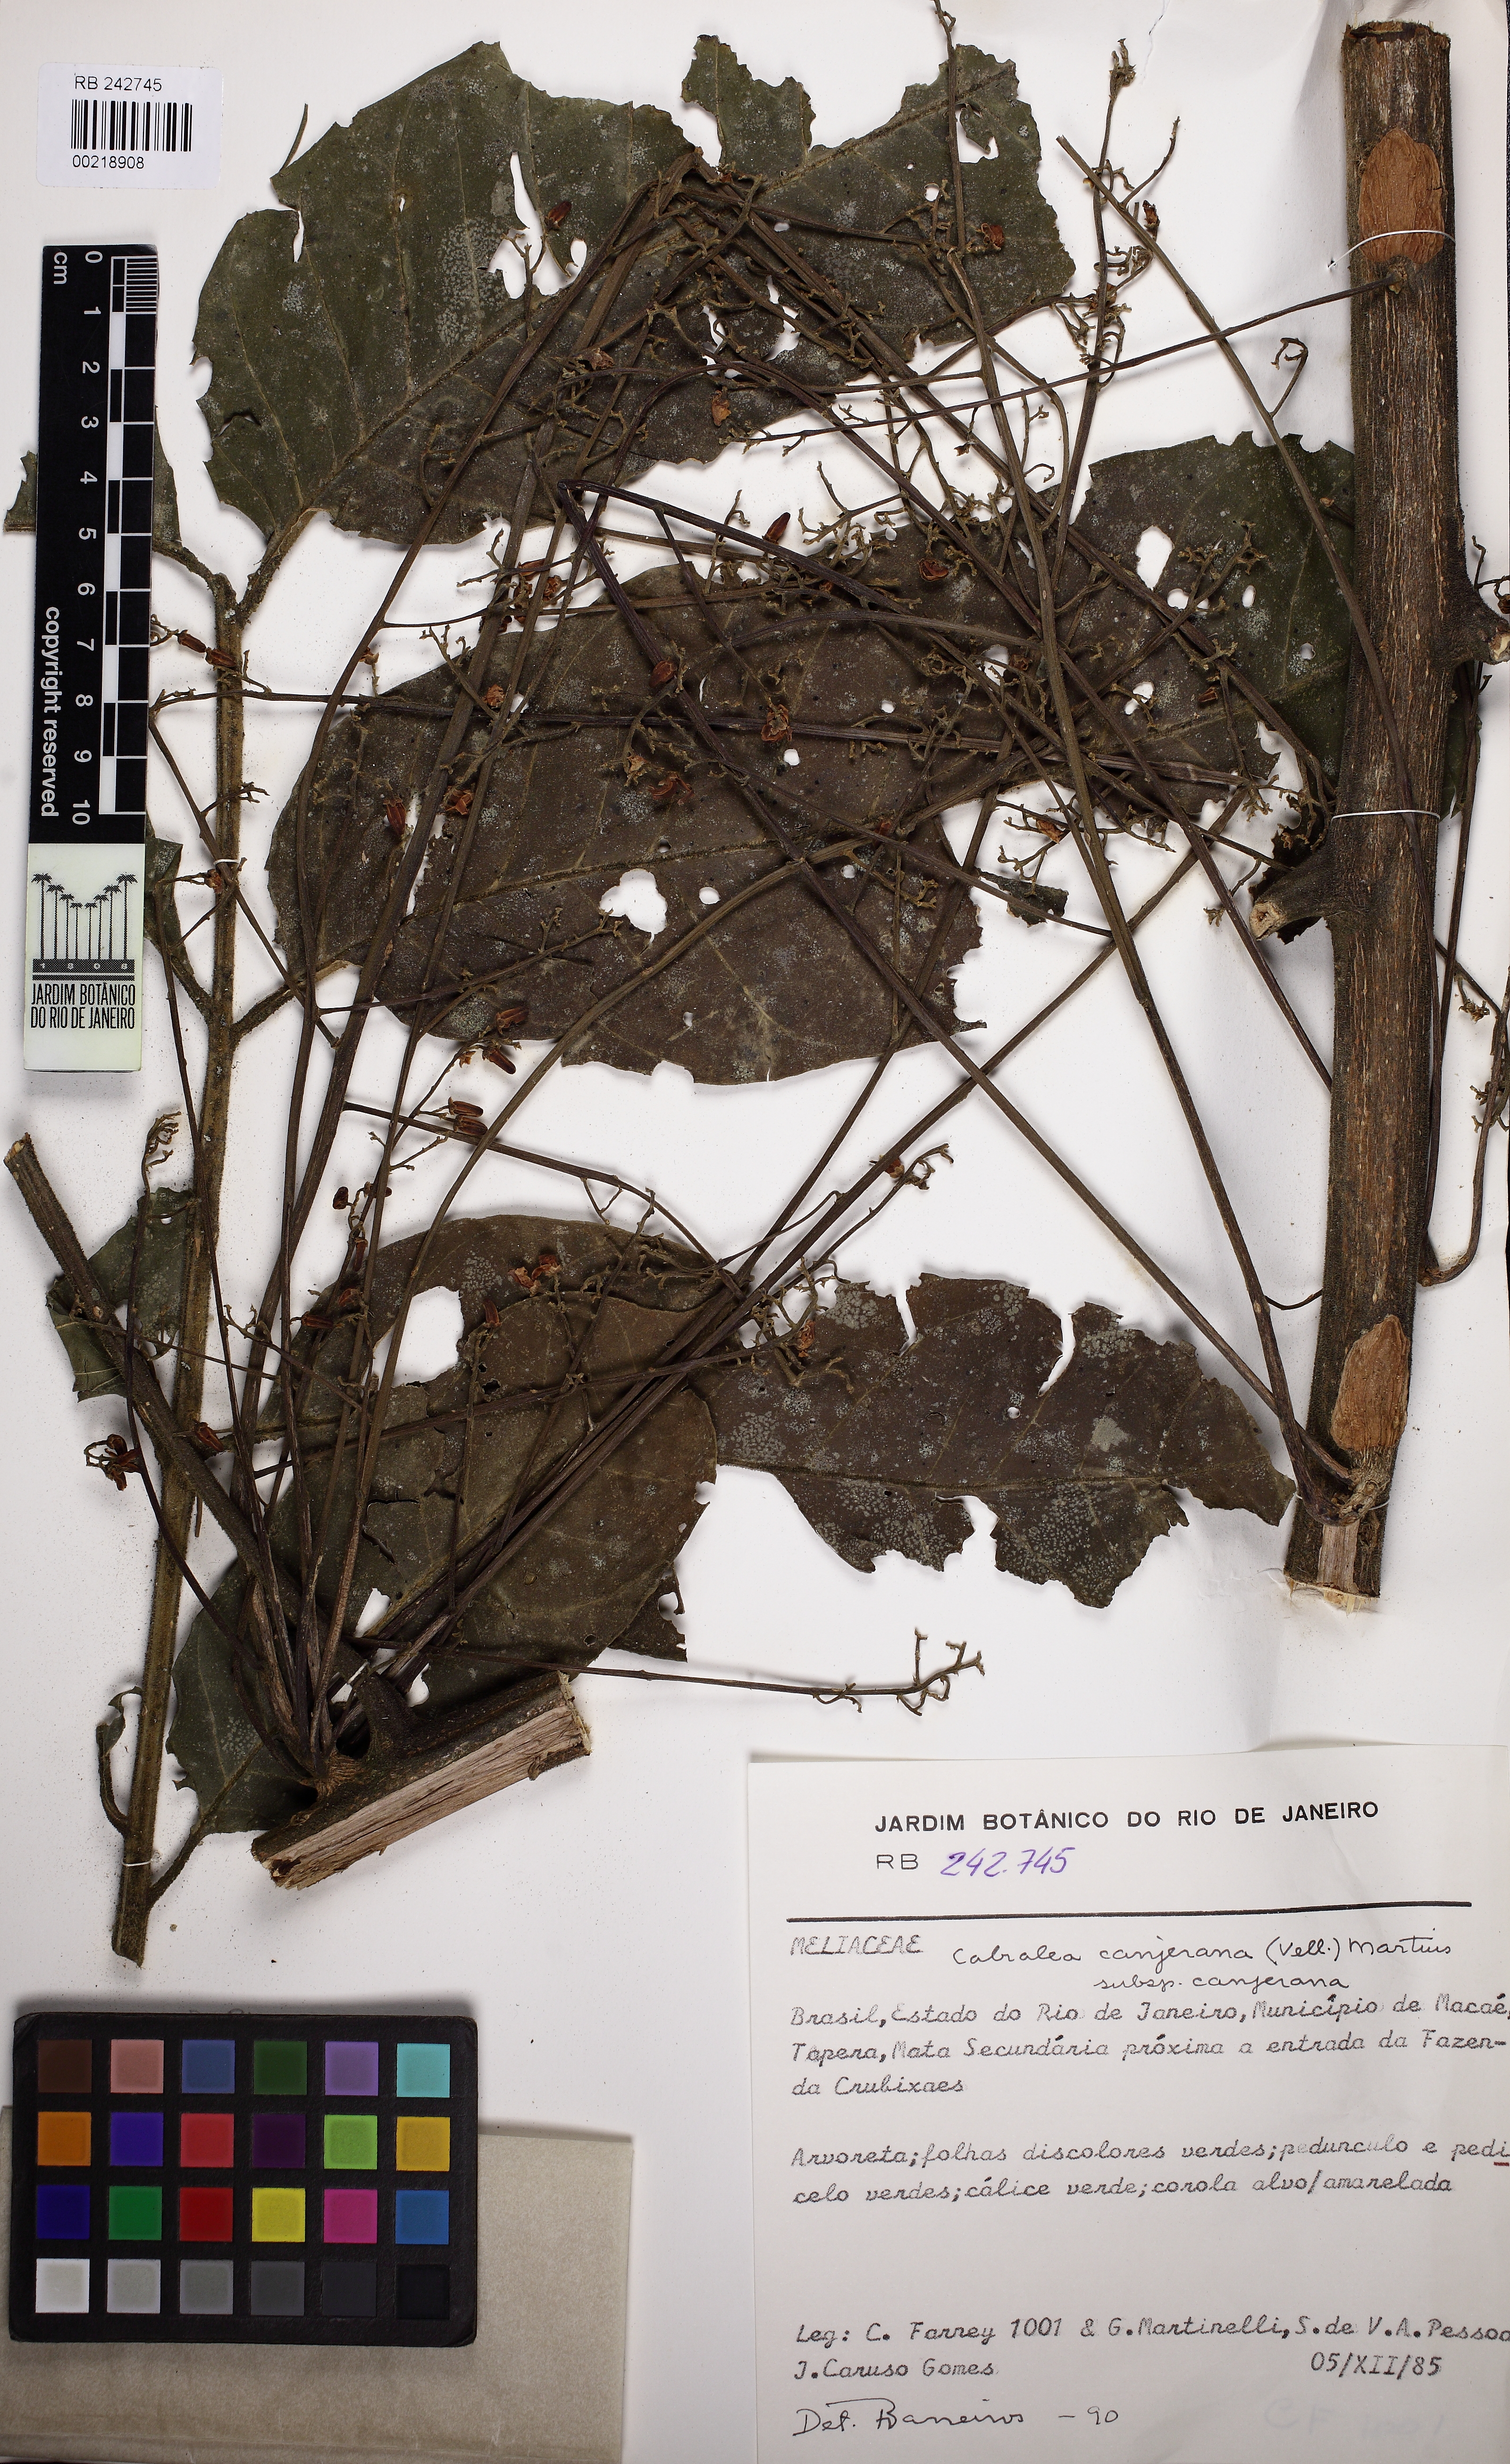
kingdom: Plantae
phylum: Tracheophyta
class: Magnoliopsida
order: Sapindales
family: Meliaceae
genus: Cabralea
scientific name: Cabralea canjerana
